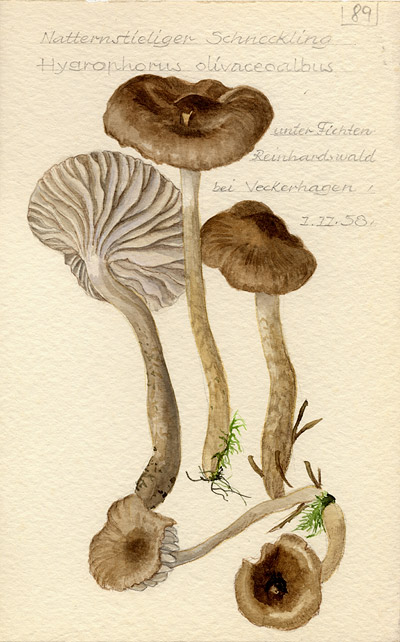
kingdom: Fungi
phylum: Basidiomycota
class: Agaricomycetes
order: Agaricales
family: Hygrophoraceae
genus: Hygrophorus
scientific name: Hygrophorus olivaceoalbus
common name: Olive wax cap
